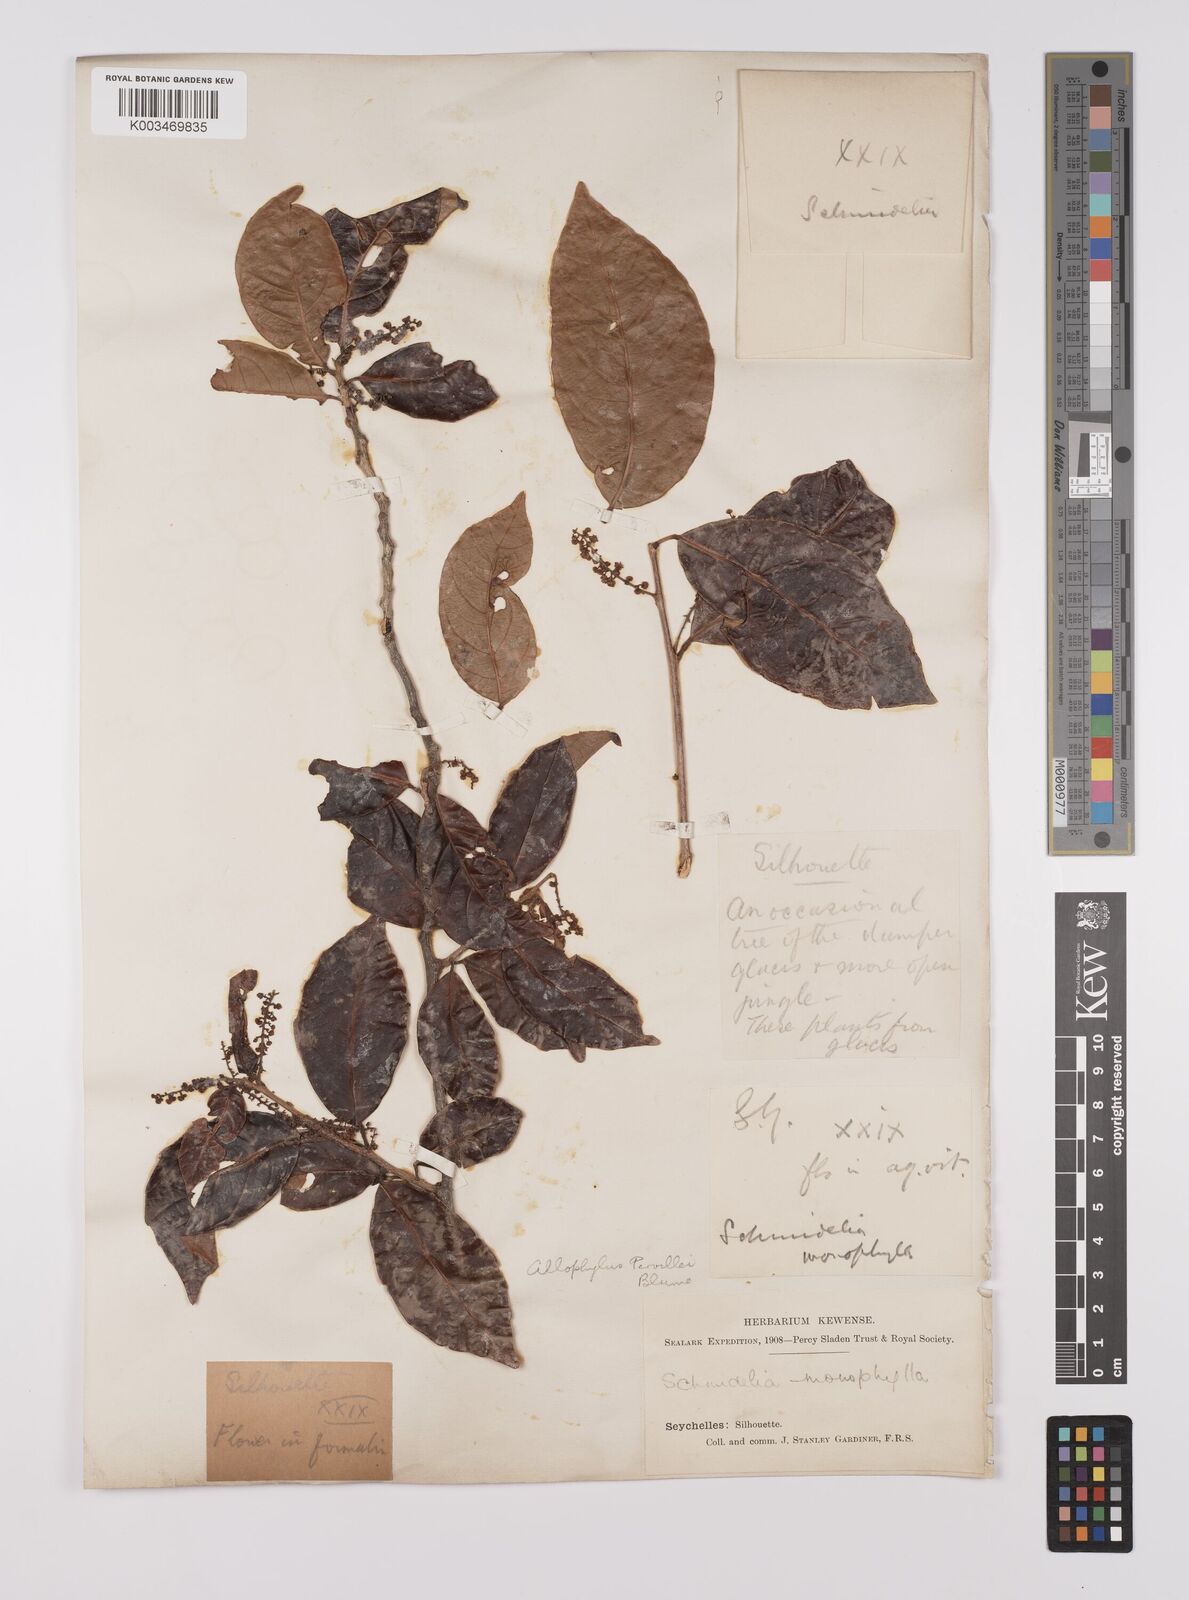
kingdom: Plantae
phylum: Tracheophyta
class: Magnoliopsida
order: Sapindales
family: Sapindaceae
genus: Allophylus
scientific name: Allophylus pervillei
